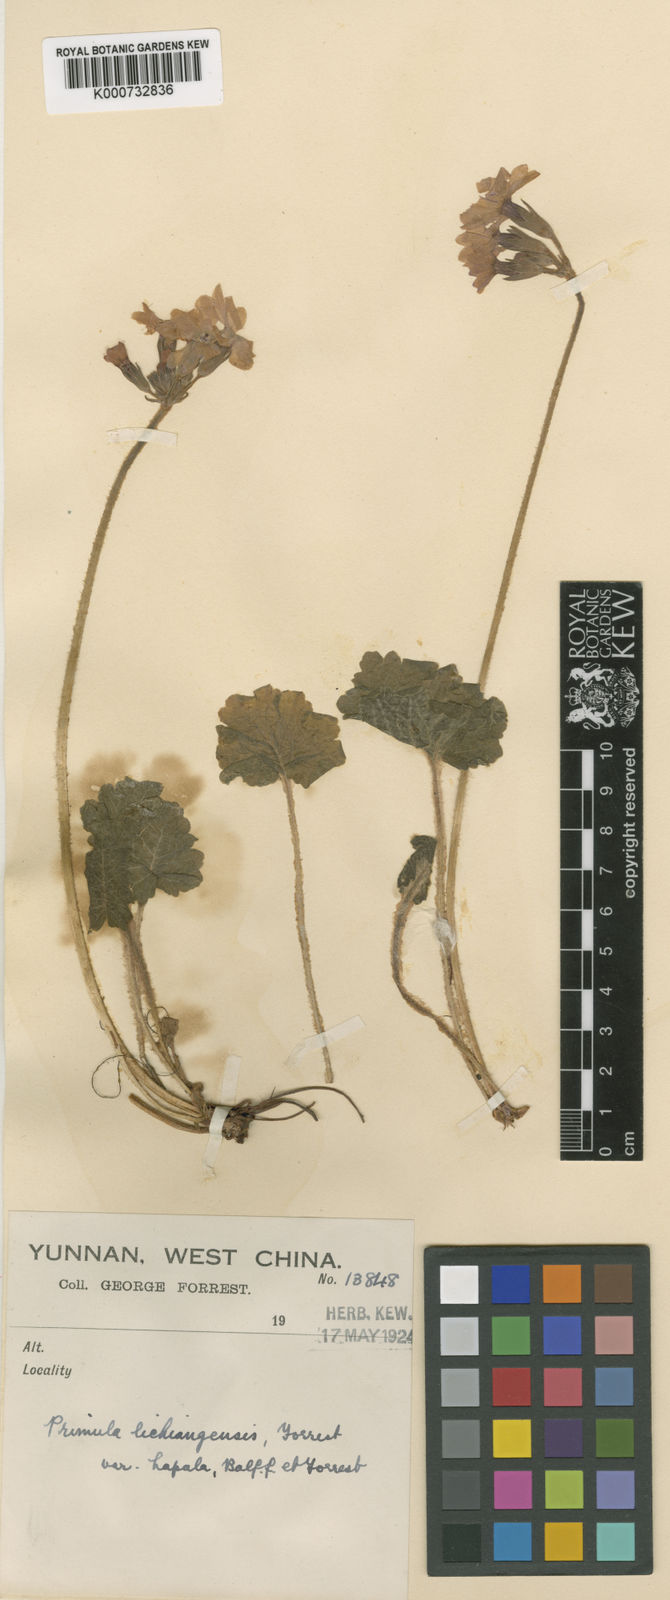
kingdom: Plantae
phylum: Tracheophyta
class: Magnoliopsida
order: Ericales
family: Primulaceae
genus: Primula
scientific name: Primula
